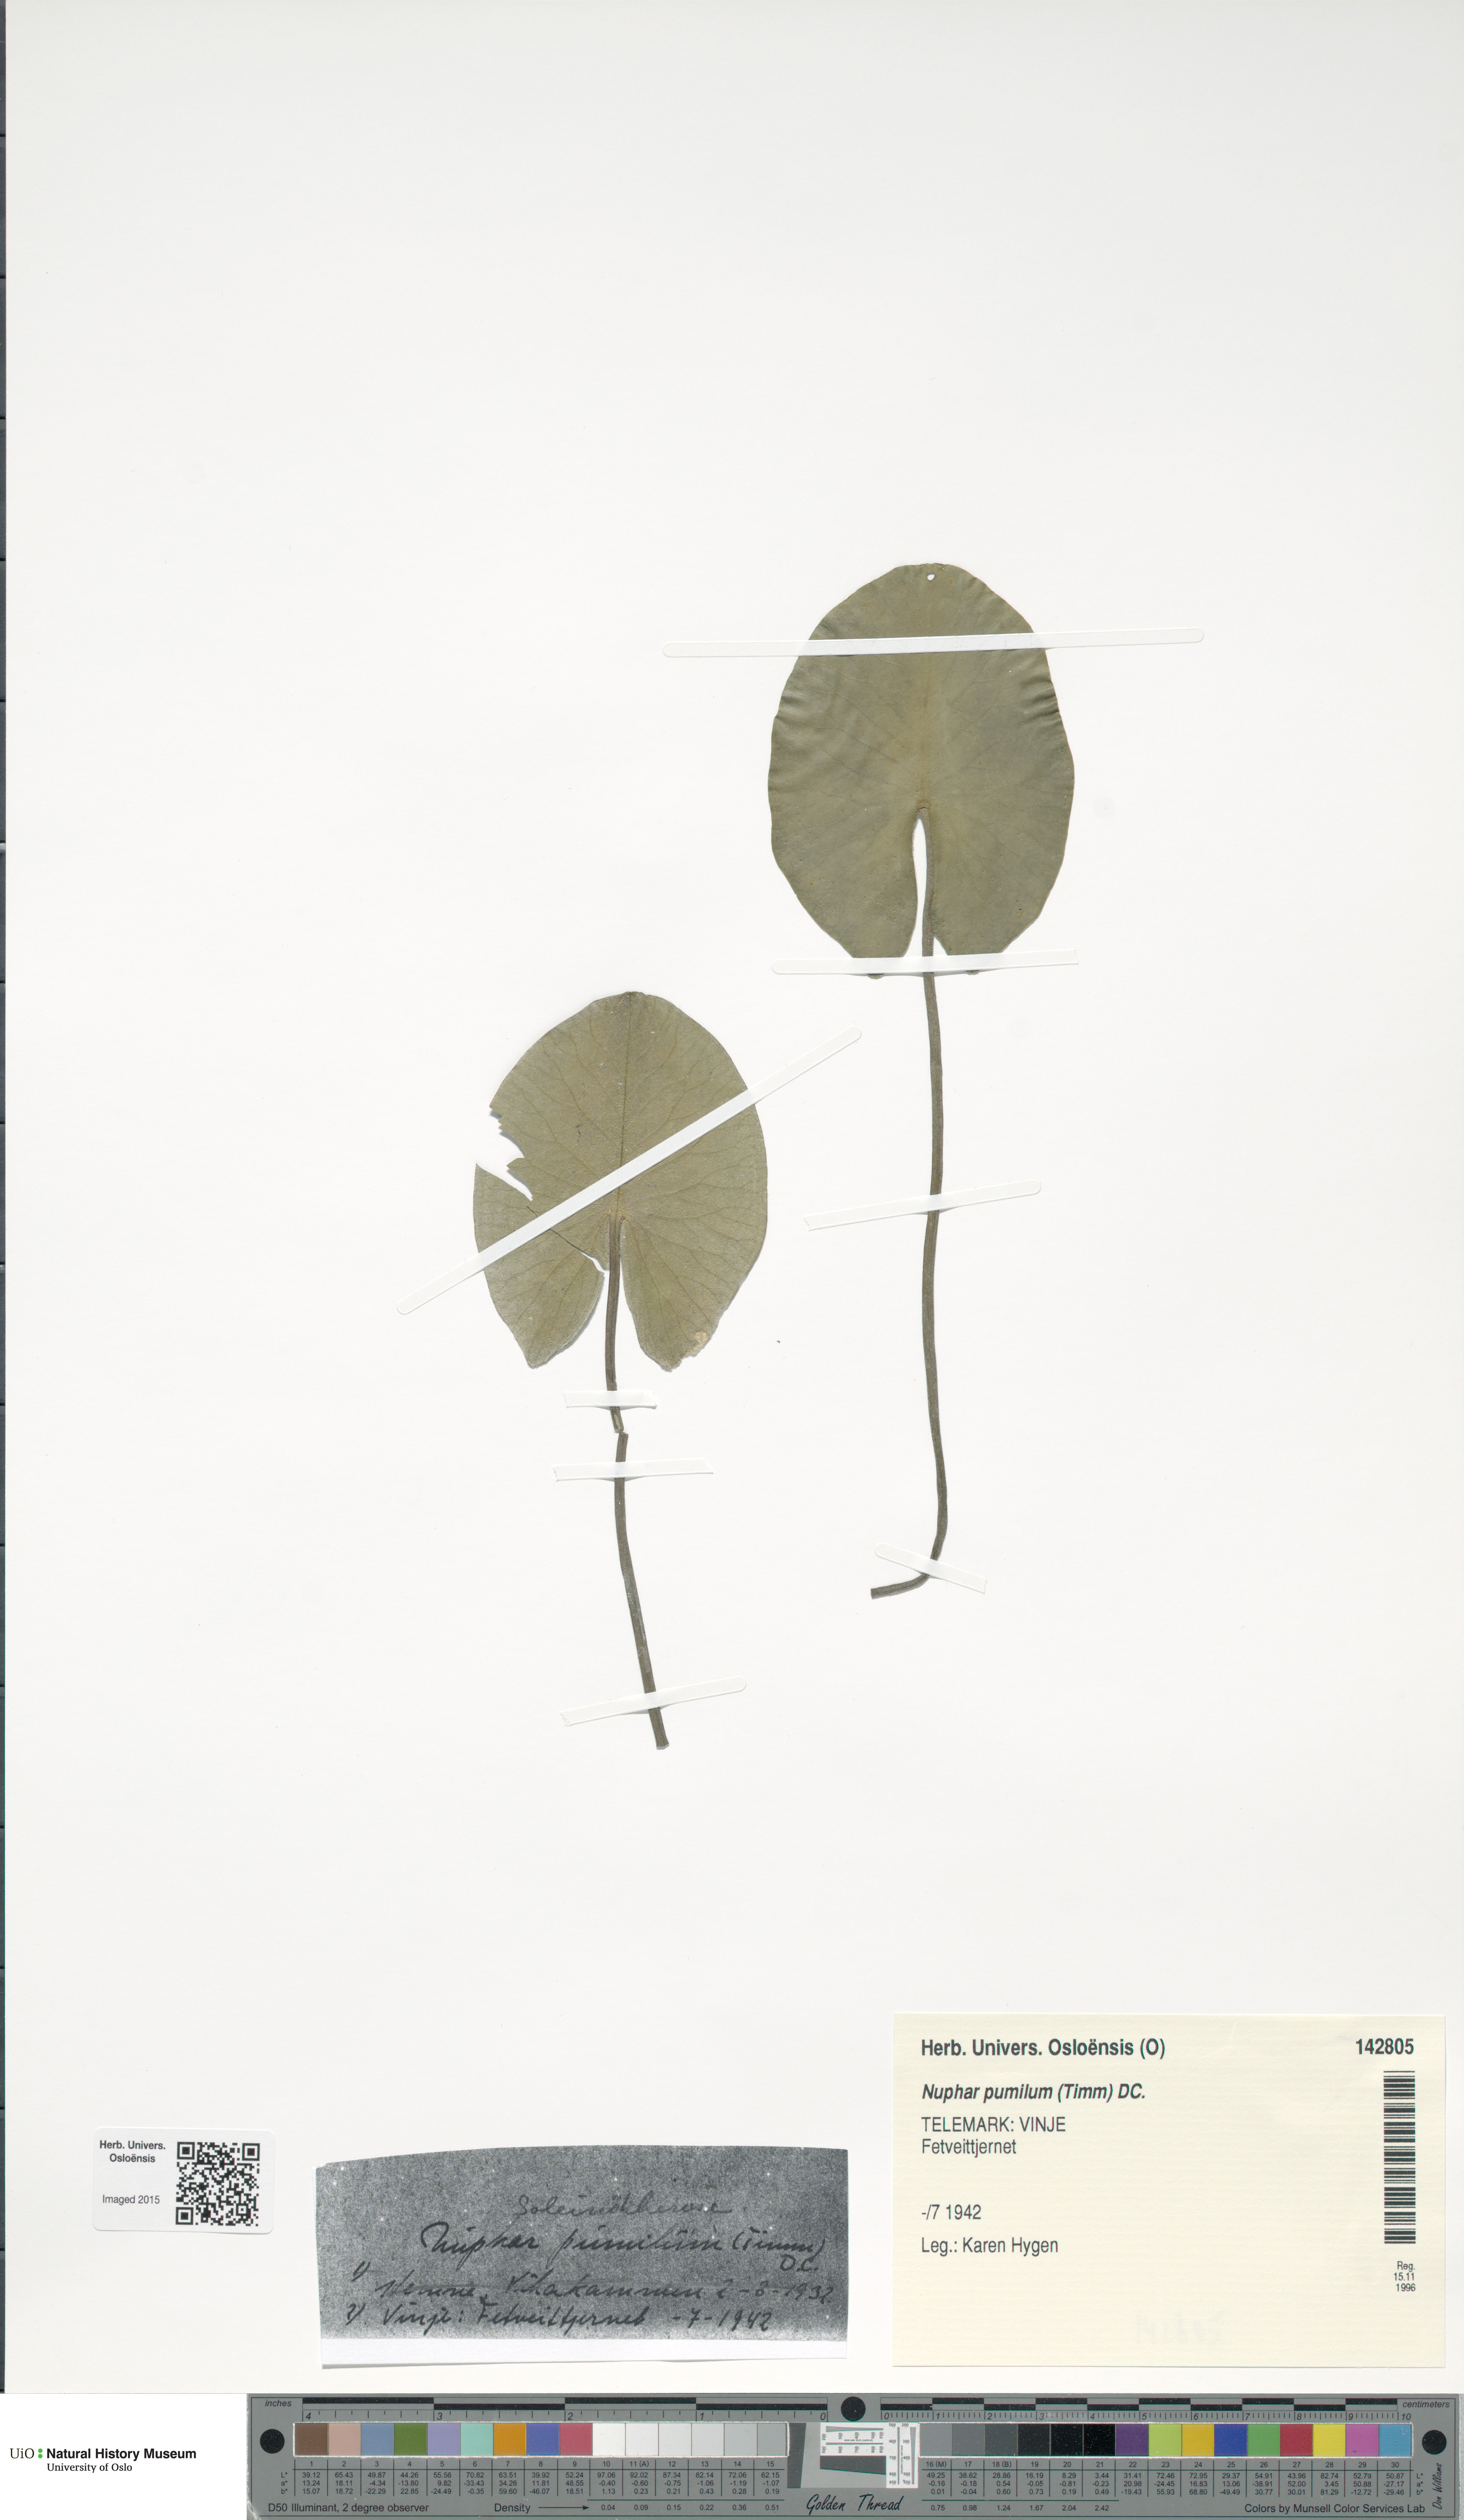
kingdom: Plantae
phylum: Tracheophyta
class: Magnoliopsida
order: Nymphaeales
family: Nymphaeaceae
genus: Nuphar
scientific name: Nuphar pumila
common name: Least water-lily
